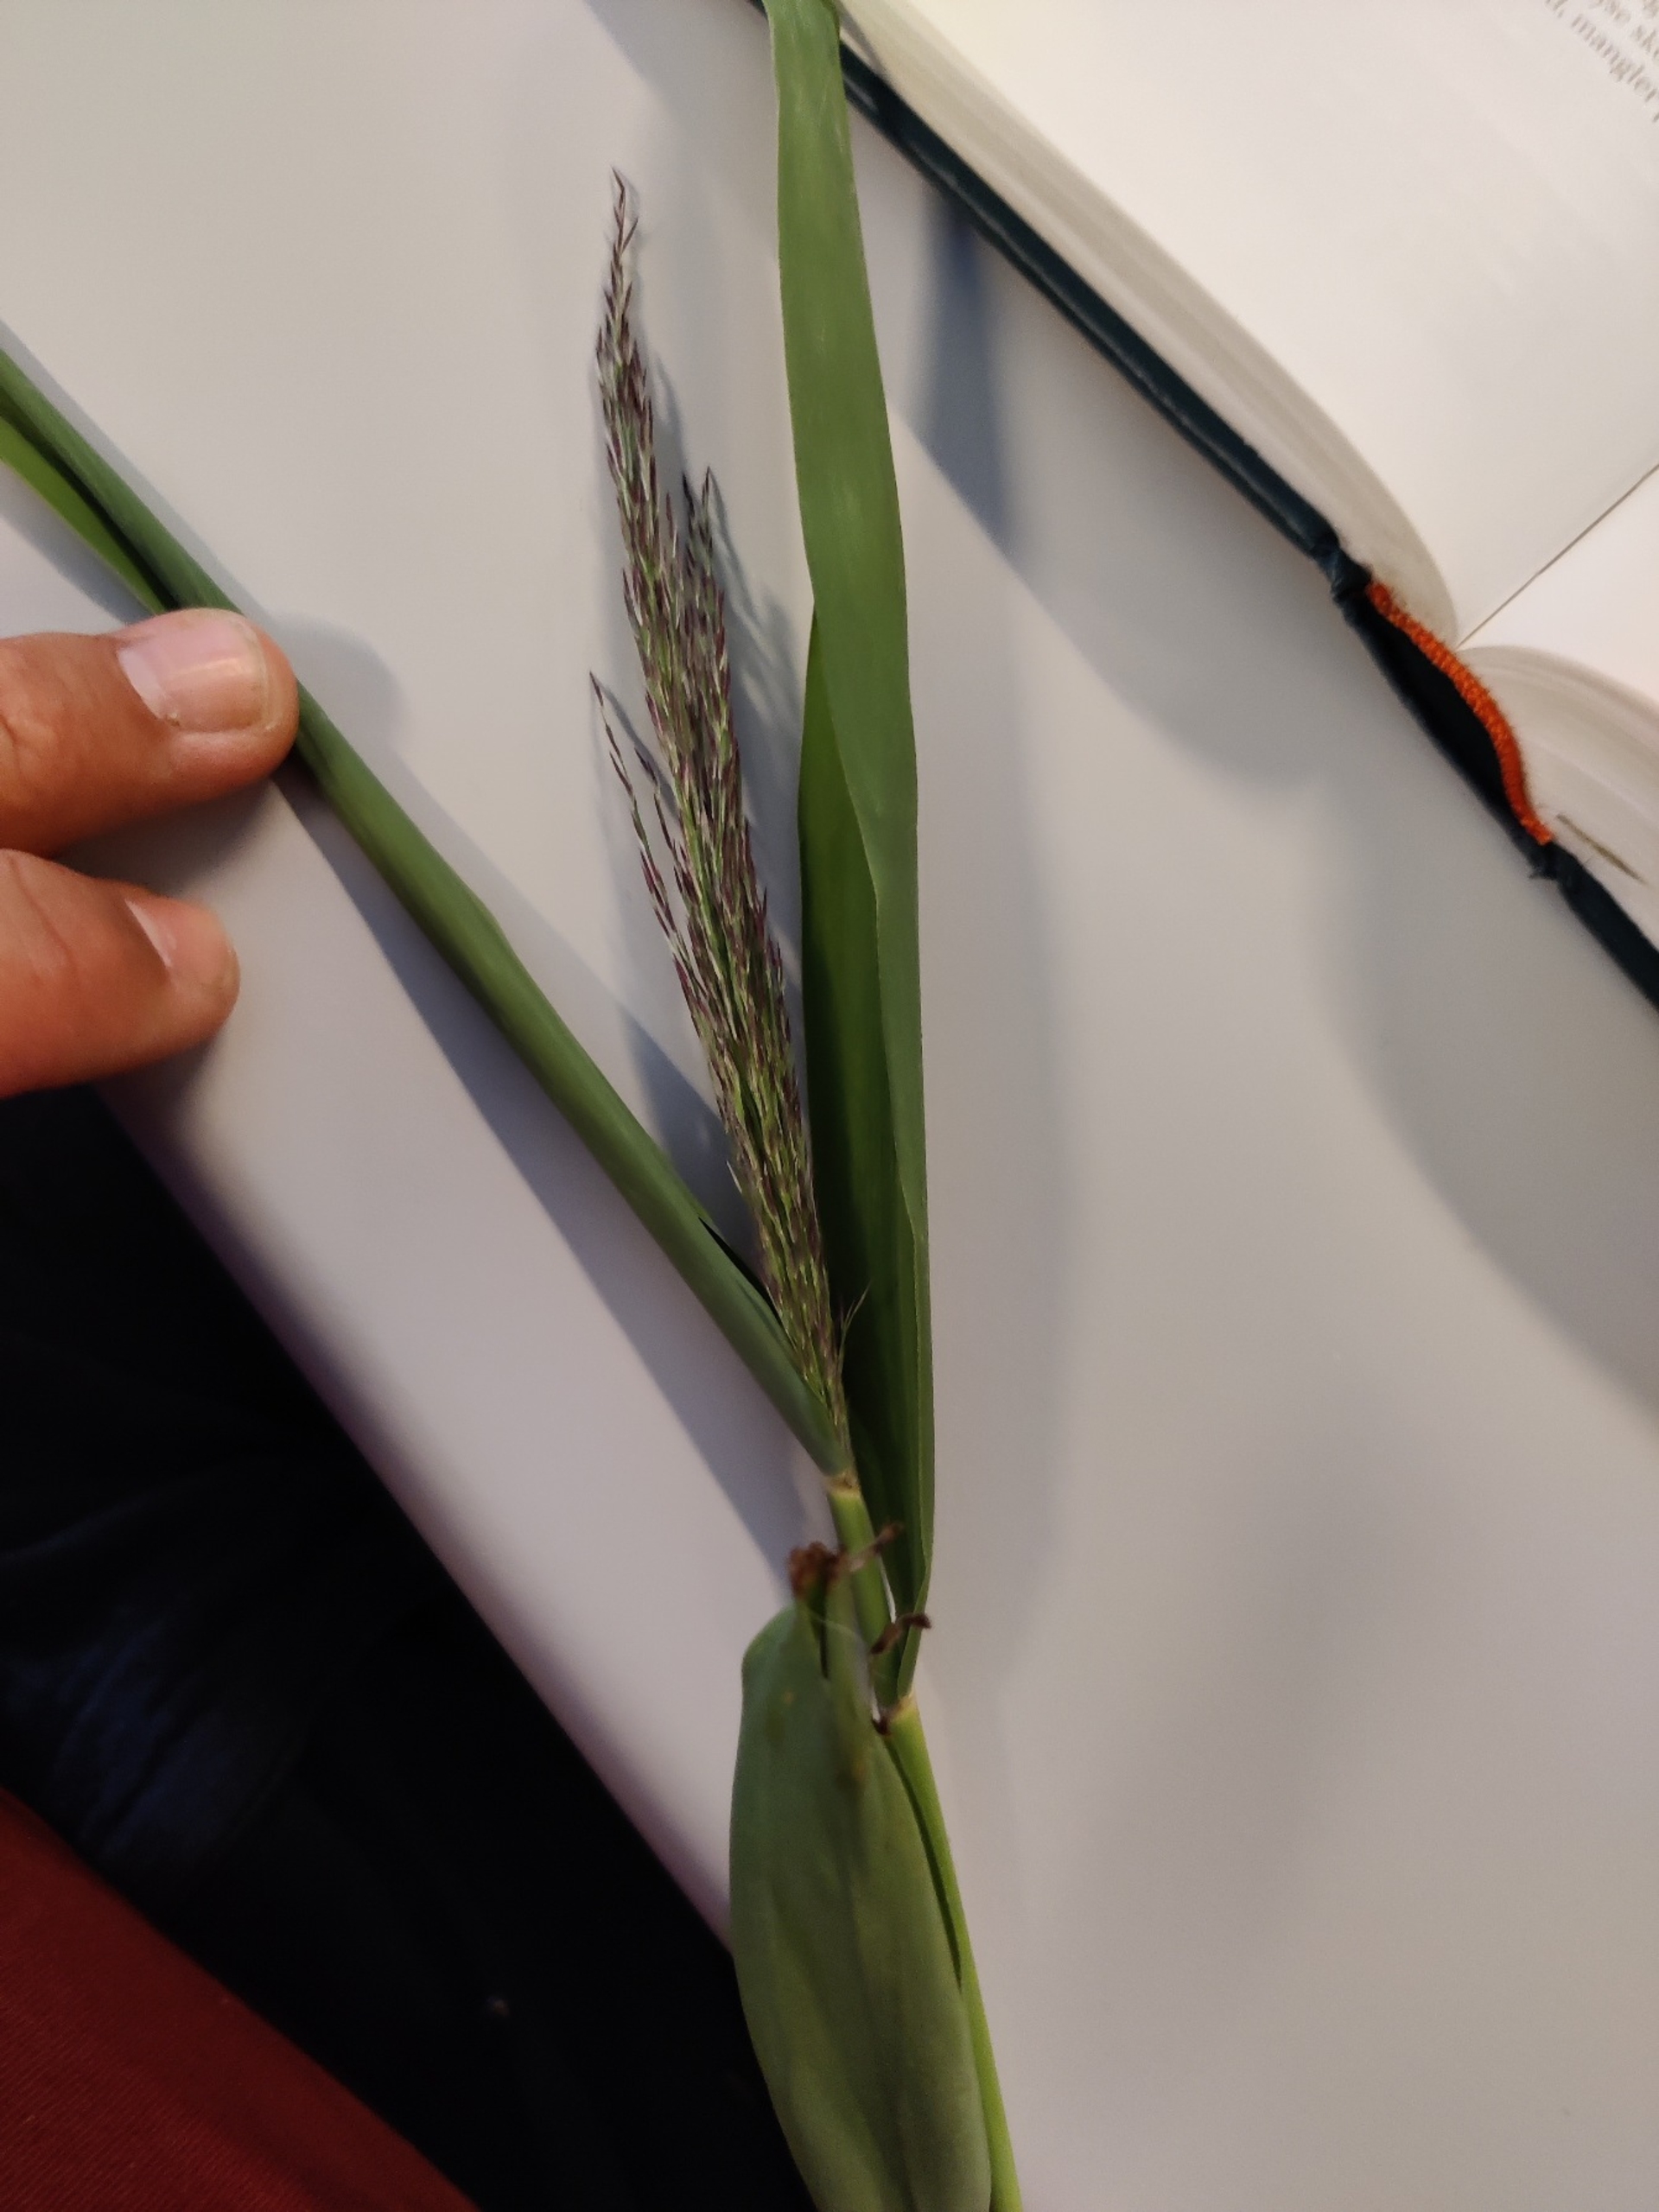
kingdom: Plantae
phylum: Tracheophyta
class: Liliopsida
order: Poales
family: Poaceae
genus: Phragmites
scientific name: Phragmites australis
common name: Tagrør
